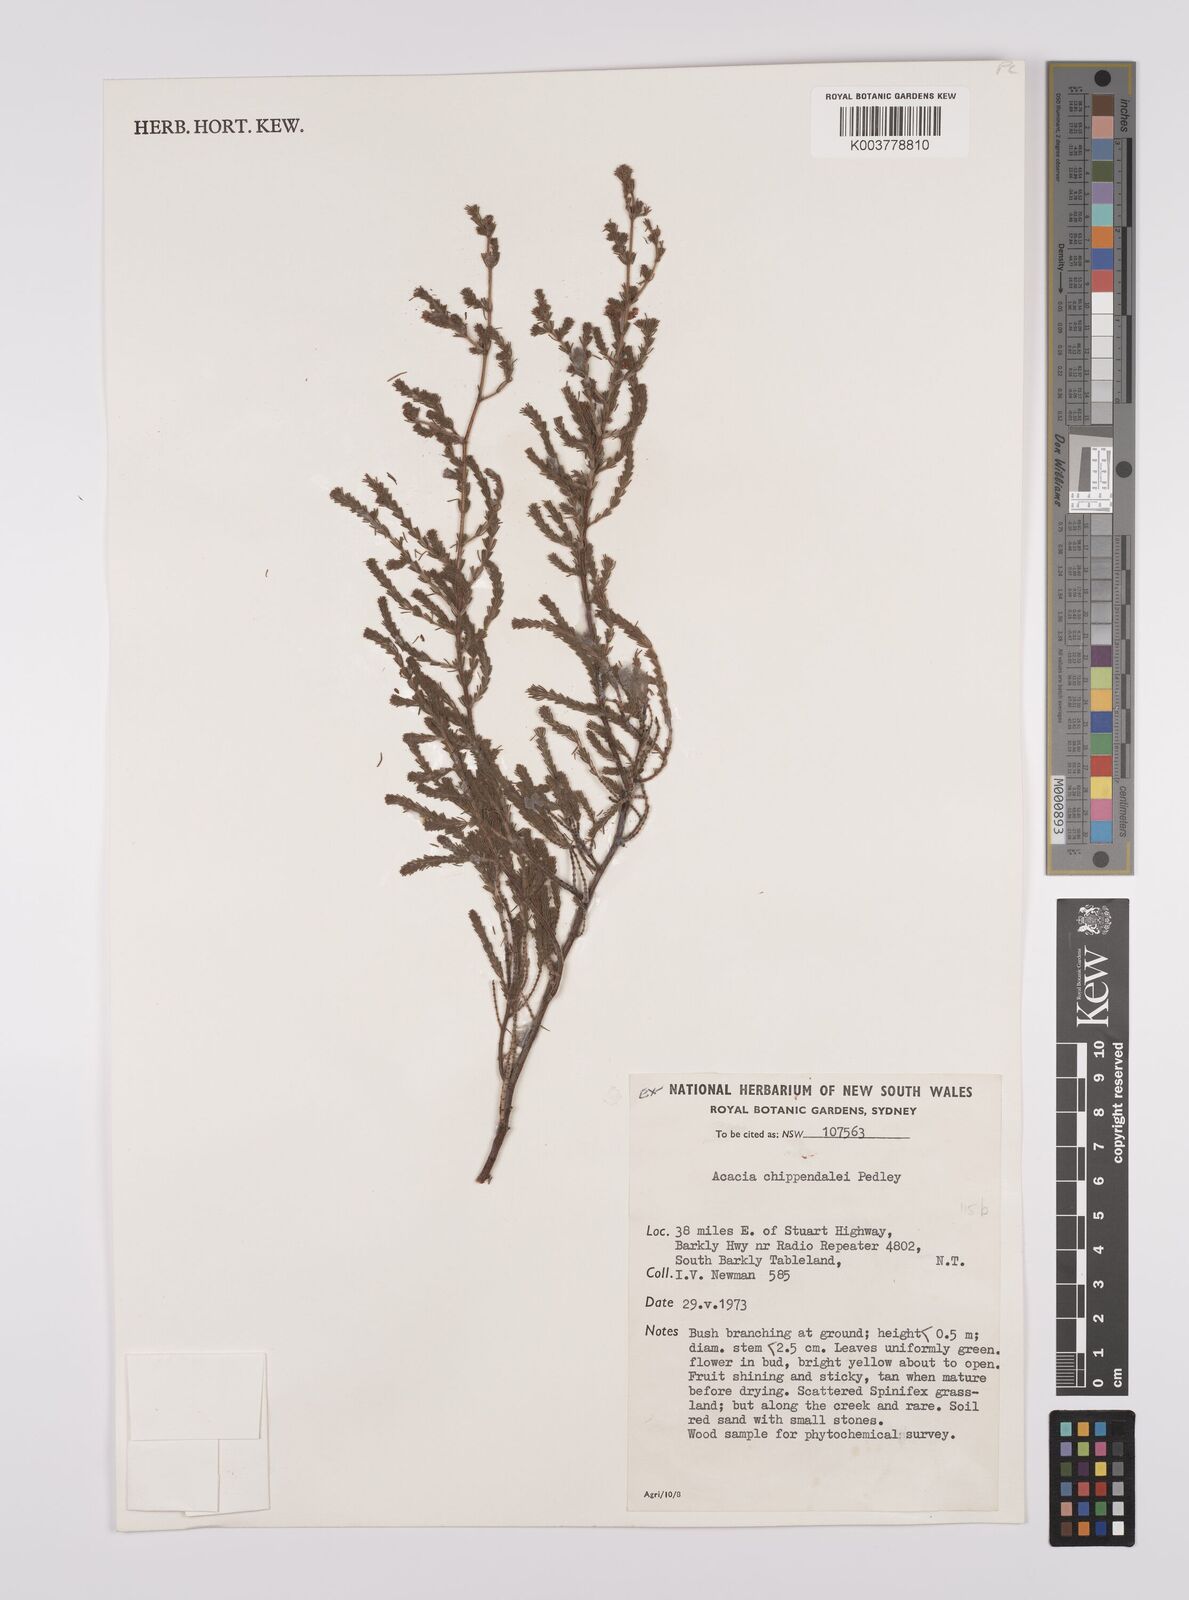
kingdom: Plantae
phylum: Tracheophyta
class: Magnoliopsida
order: Fabales
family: Fabaceae
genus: Acacia
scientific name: Acacia chippendalei
